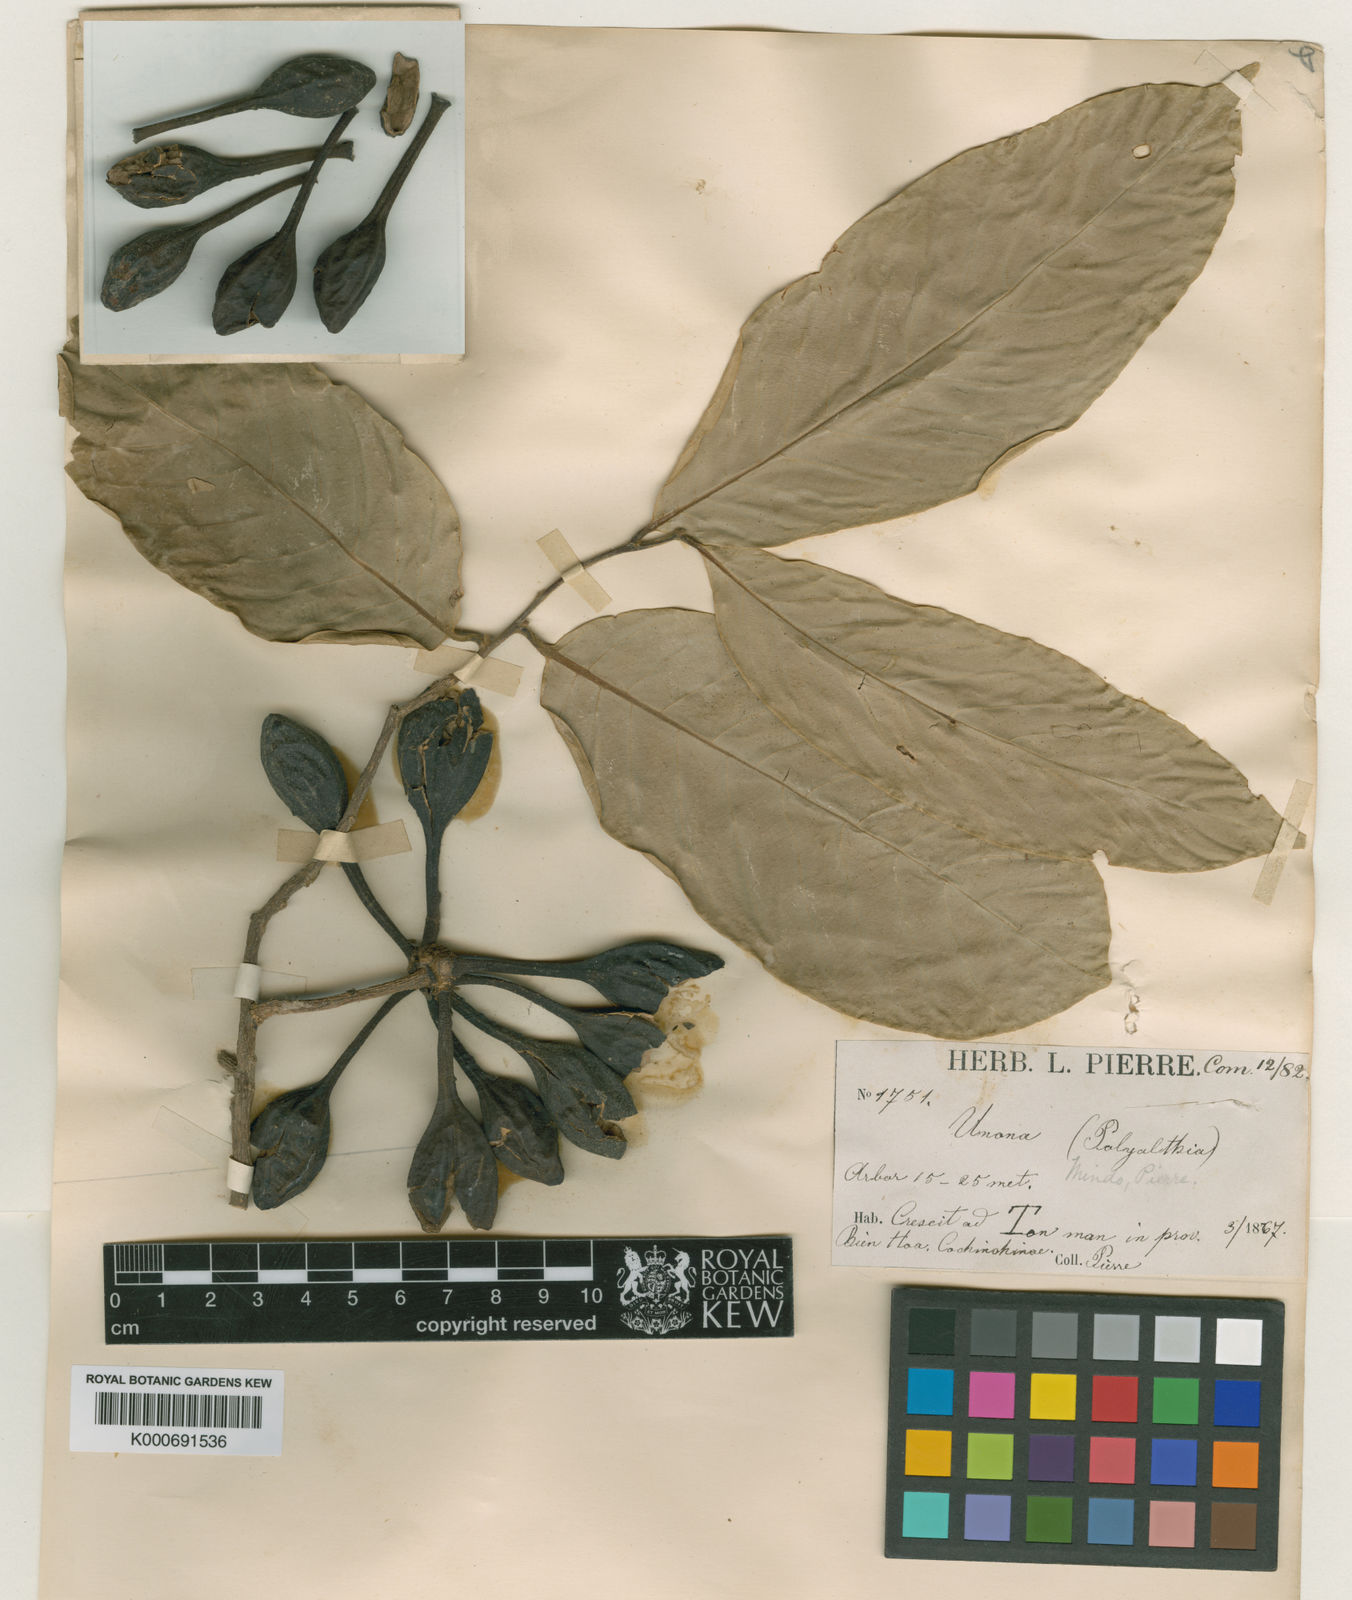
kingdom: Plantae
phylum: Tracheophyta
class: Magnoliopsida
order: Magnoliales
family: Annonaceae
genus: Polyalthia
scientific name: Polyalthia simiarum
